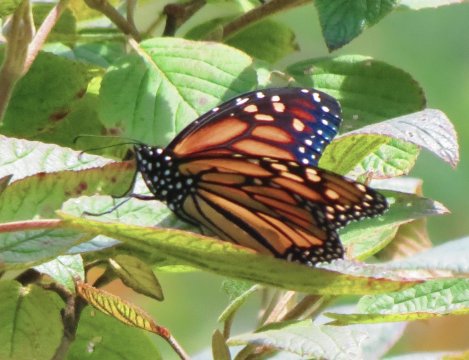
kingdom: Animalia
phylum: Arthropoda
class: Insecta
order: Lepidoptera
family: Nymphalidae
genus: Danaus
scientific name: Danaus plexippus
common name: Monarch
